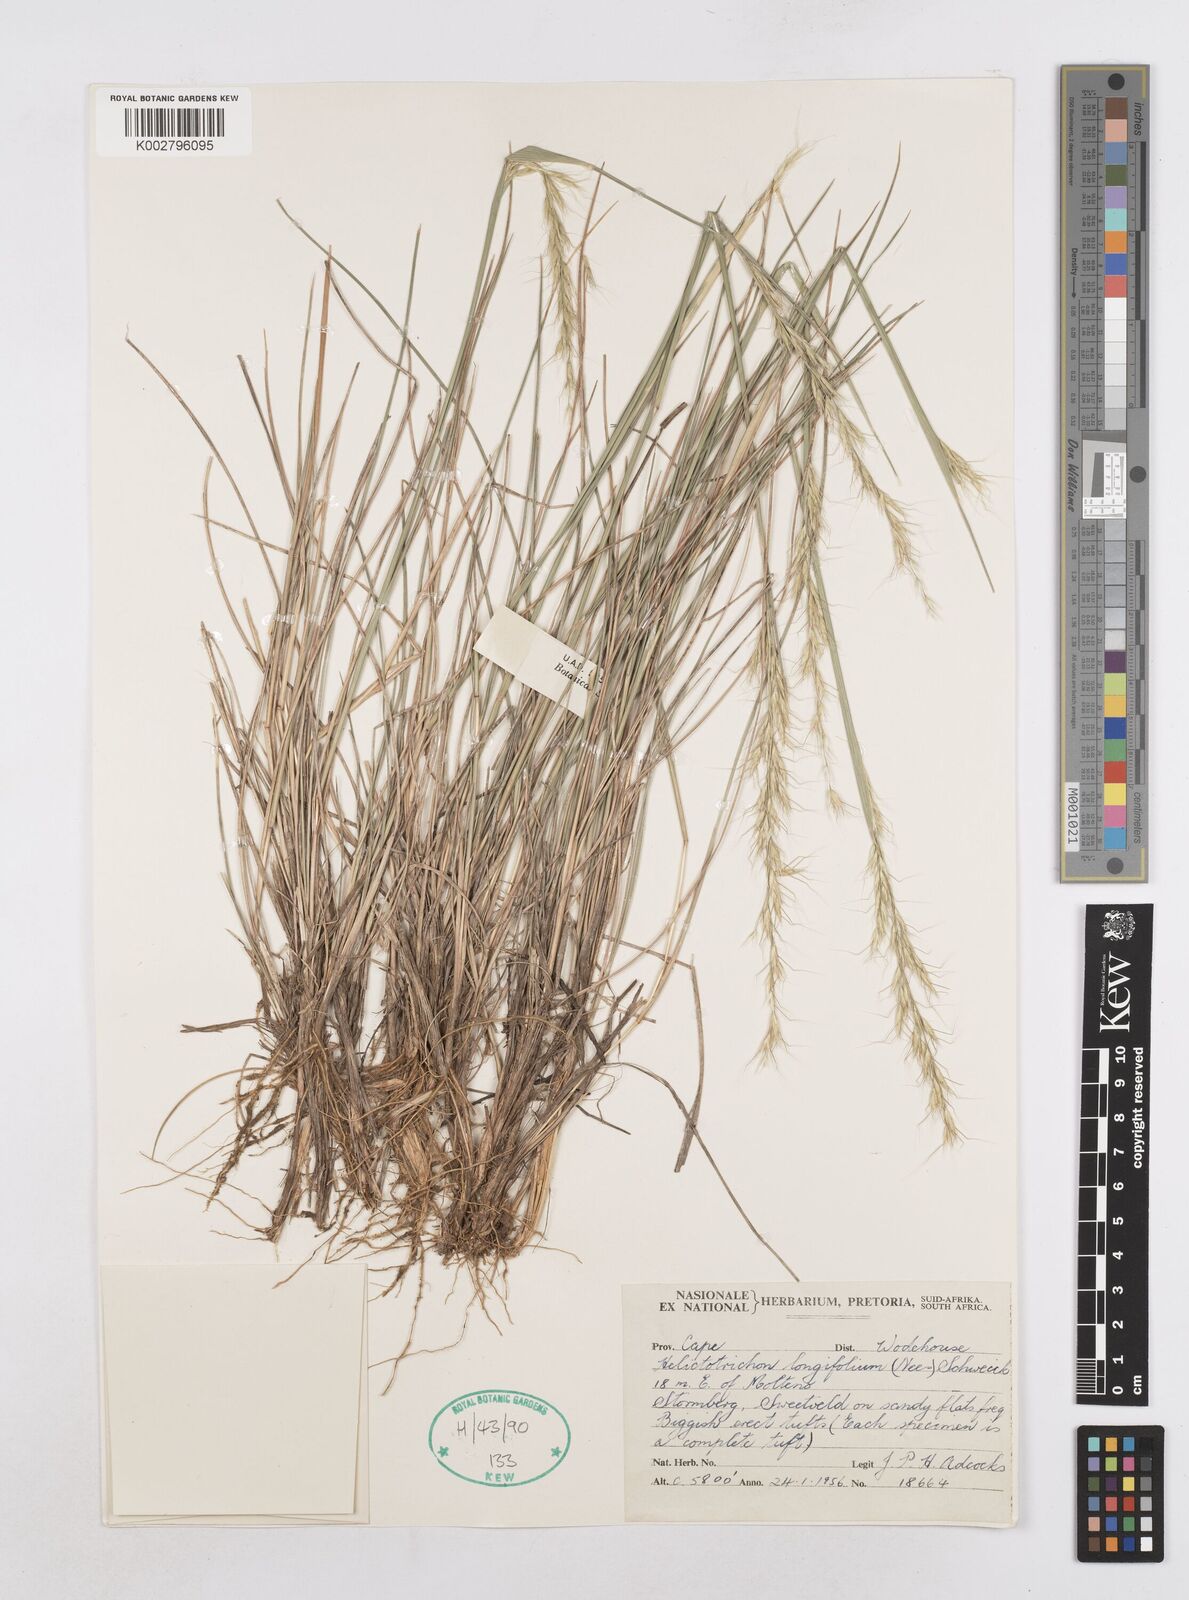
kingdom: Plantae
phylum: Tracheophyta
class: Liliopsida
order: Poales
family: Poaceae
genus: Trisetopsis
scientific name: Trisetopsis longifolia
